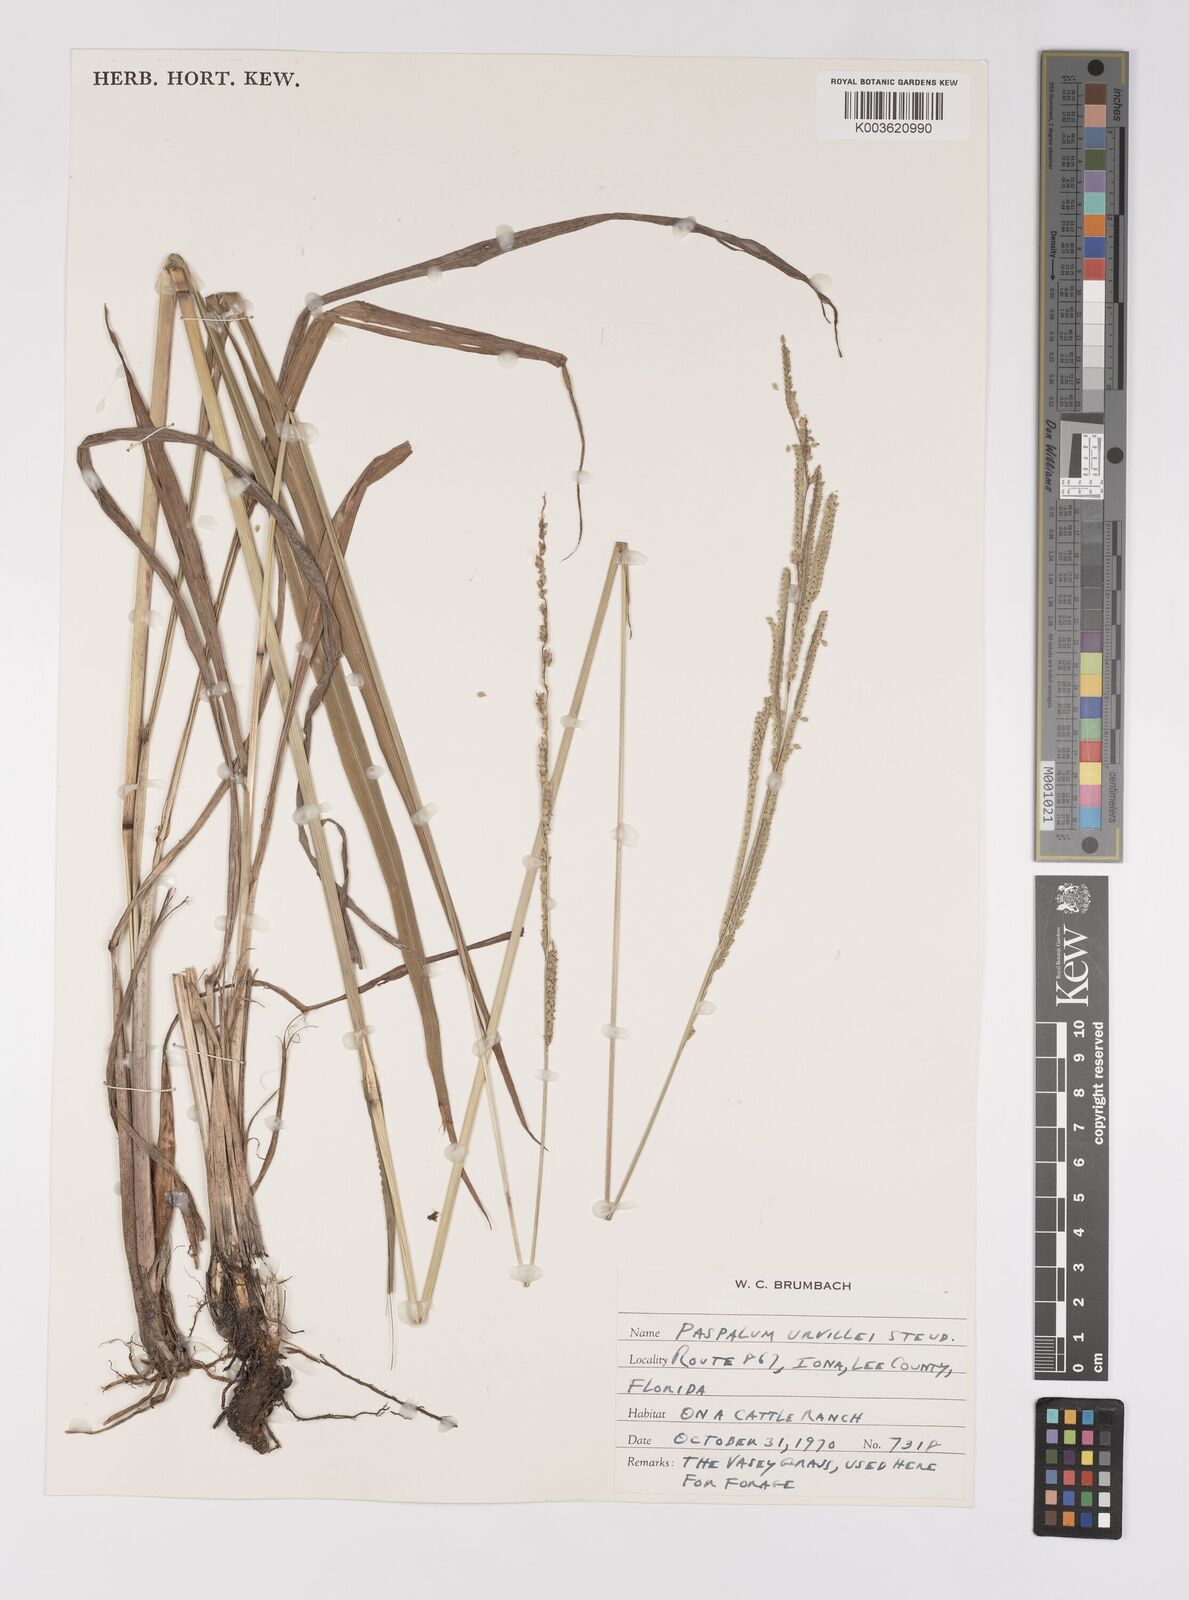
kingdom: Plantae
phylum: Tracheophyta
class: Liliopsida
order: Poales
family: Poaceae
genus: Paspalum
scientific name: Paspalum urvillei
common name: Vasey's grass
